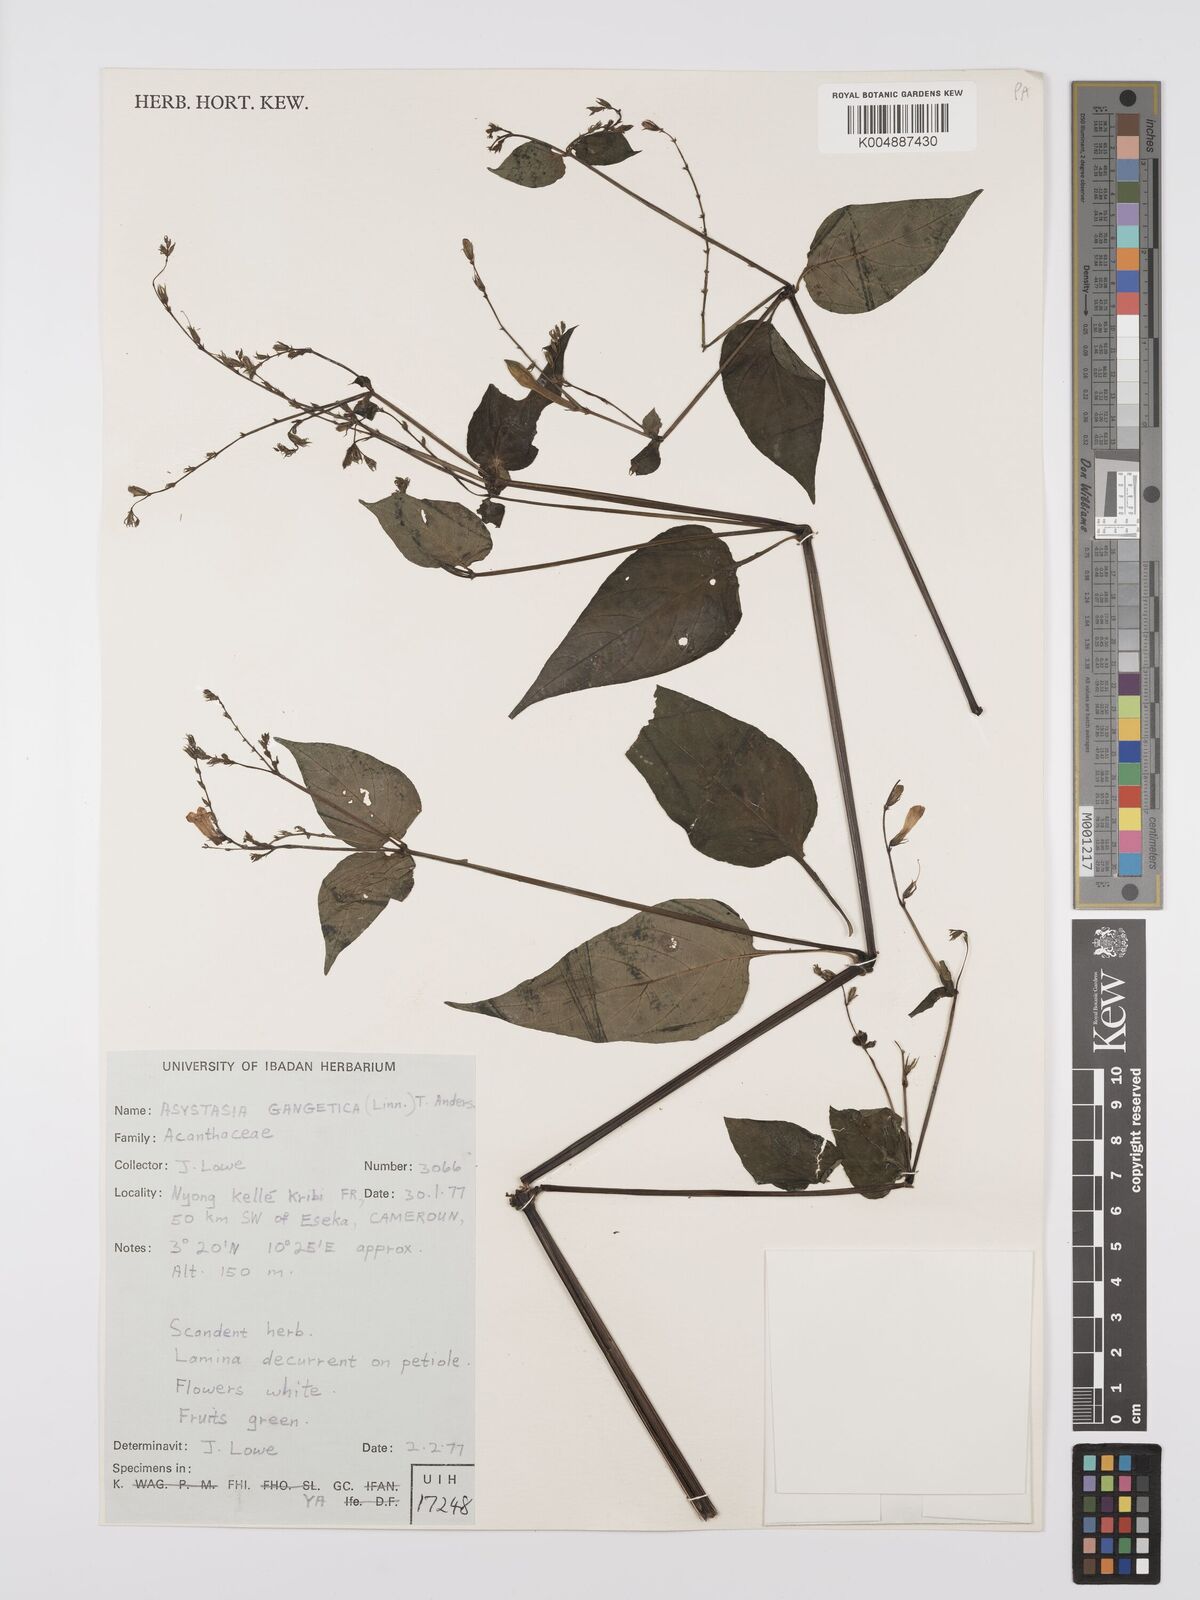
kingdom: Plantae
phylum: Tracheophyta
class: Magnoliopsida
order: Lamiales
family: Acanthaceae
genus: Asystasia
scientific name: Asystasia gangetica
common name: Chinese violet
